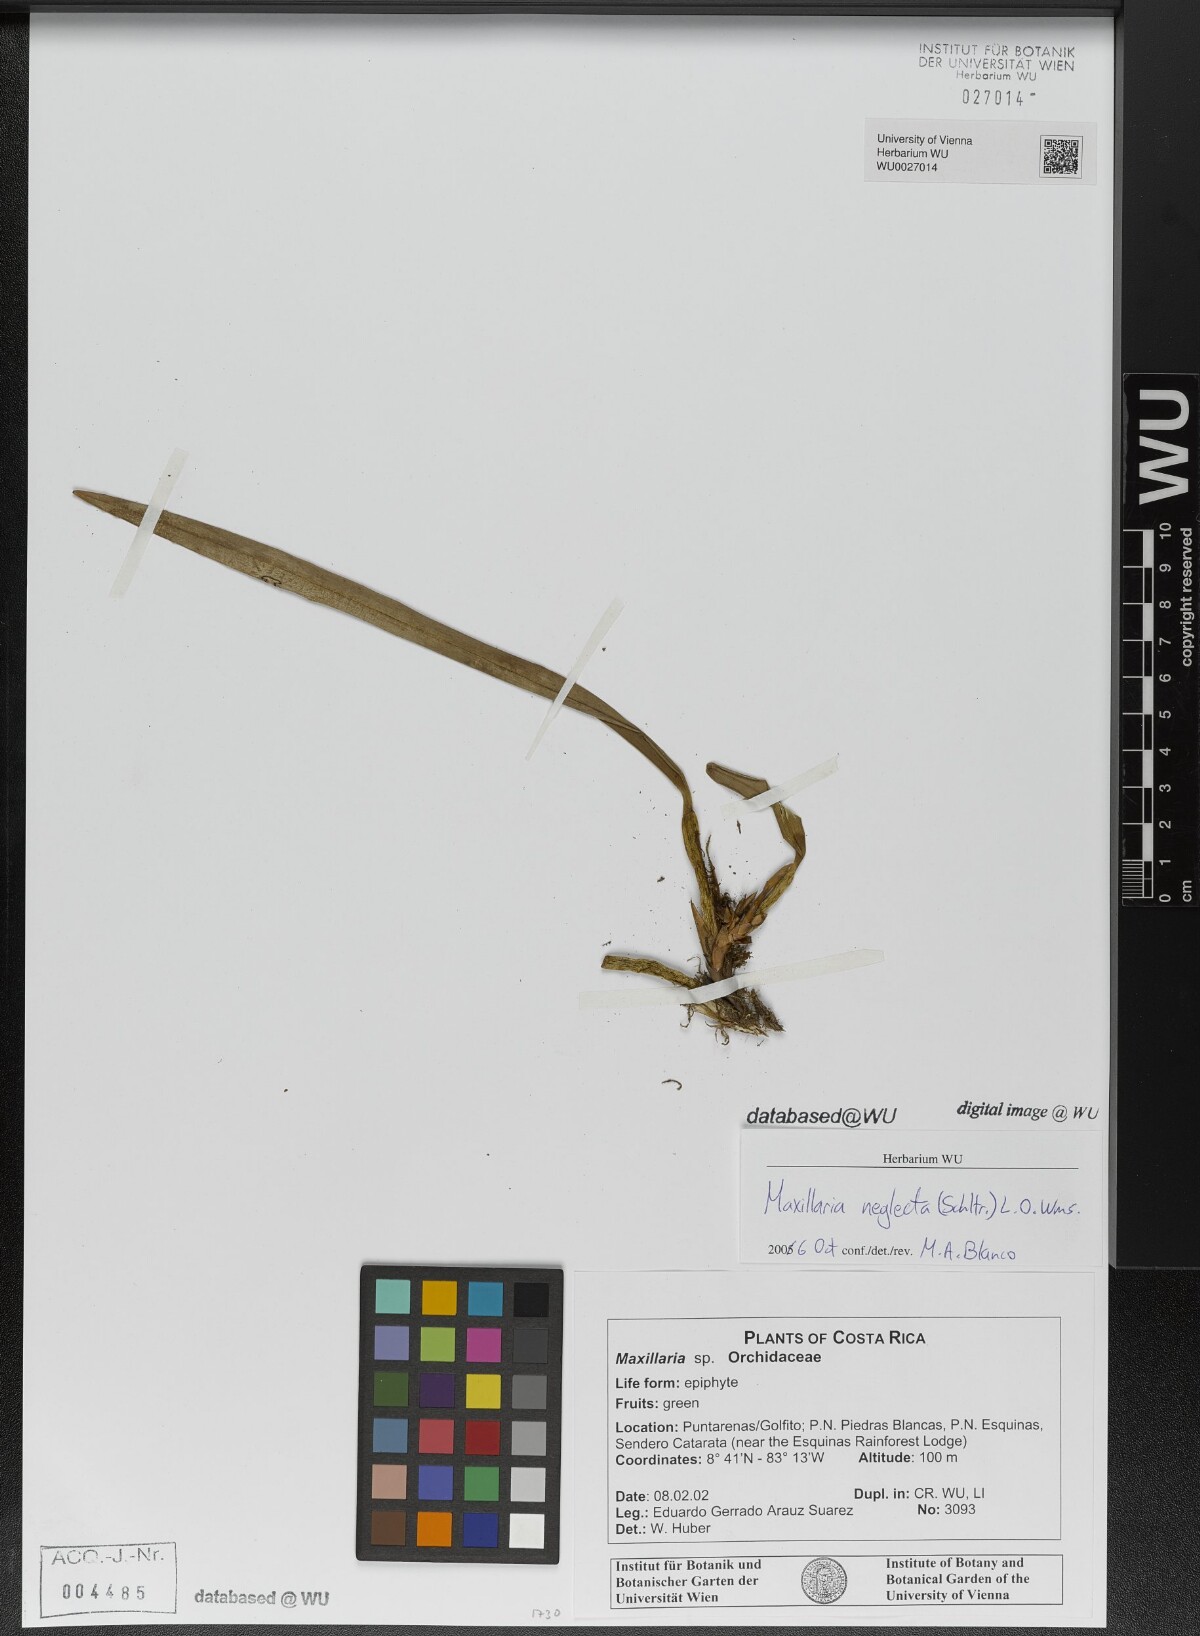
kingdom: Plantae
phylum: Tracheophyta
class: Liliopsida
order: Asparagales
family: Orchidaceae
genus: Maxillaria
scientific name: Maxillaria neglecta
